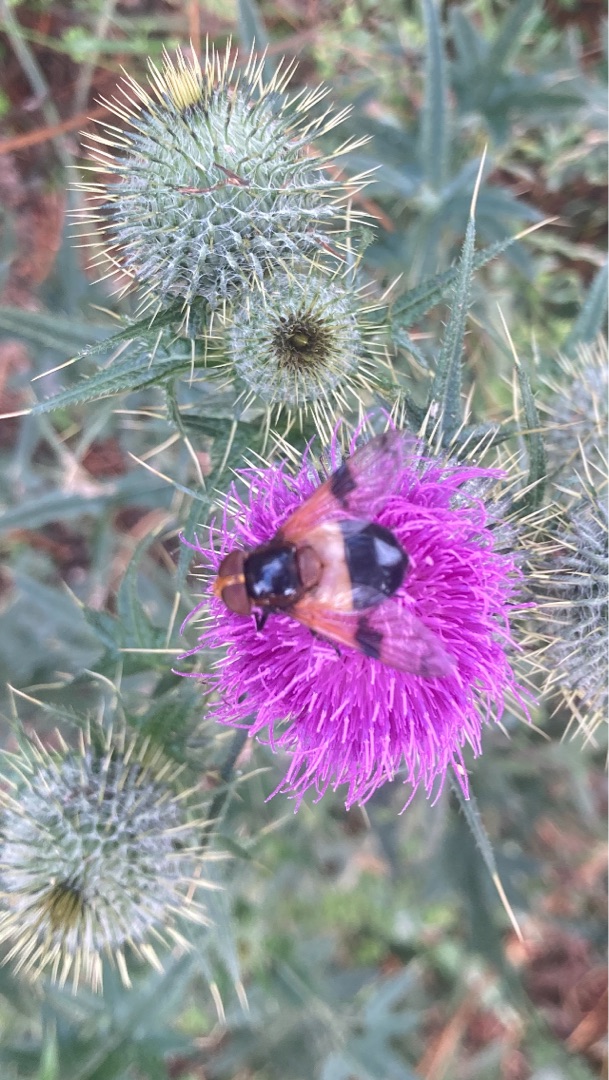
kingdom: Animalia
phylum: Arthropoda
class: Insecta
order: Diptera
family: Syrphidae
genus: Volucella
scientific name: Volucella pellucens
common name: Hvidbåndet humlesvirreflue
